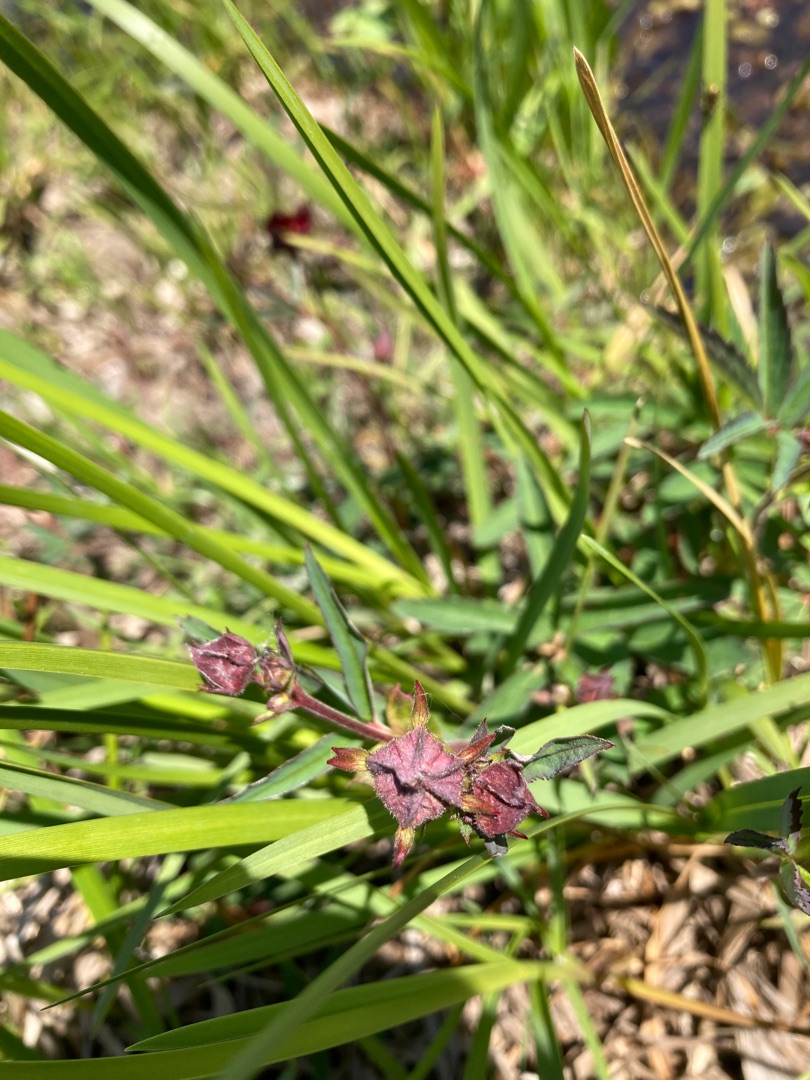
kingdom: Plantae
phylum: Tracheophyta
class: Magnoliopsida
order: Rosales
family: Rosaceae
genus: Comarum
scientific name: Comarum palustre
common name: Kragefod
